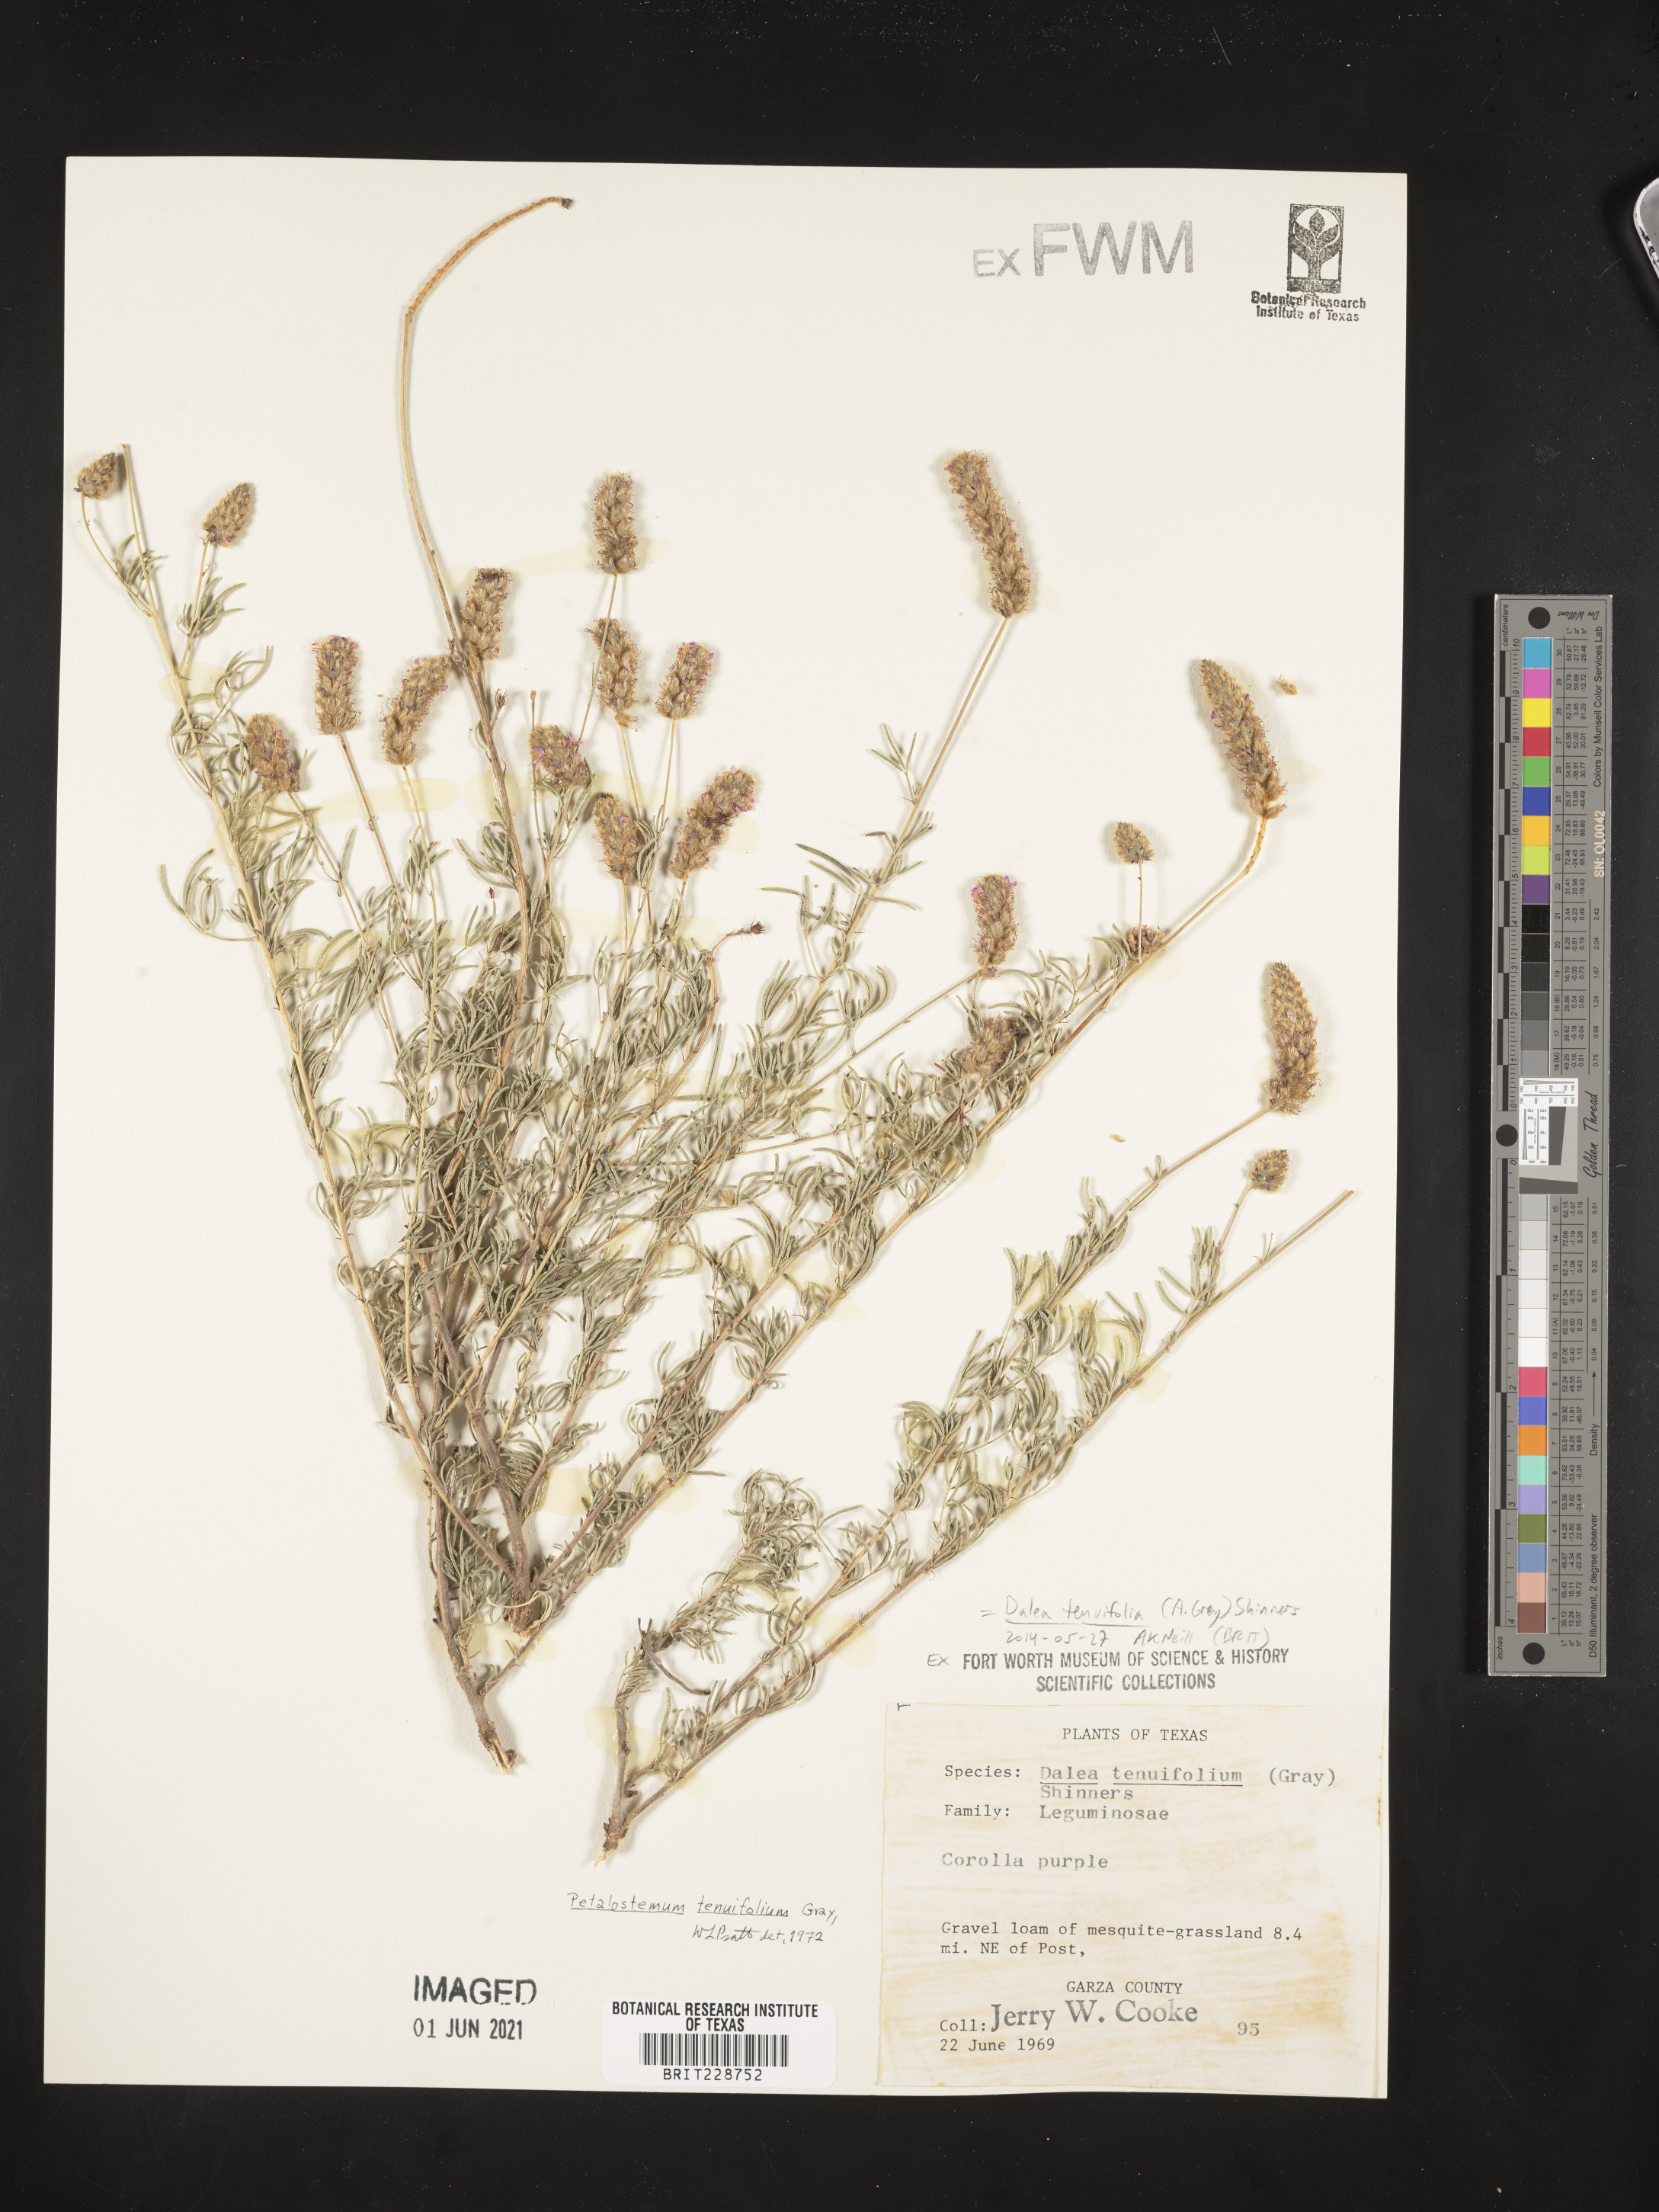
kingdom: Plantae
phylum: Tracheophyta
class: Magnoliopsida
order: Fabales
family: Fabaceae
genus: Dalea
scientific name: Dalea tenuifolia
